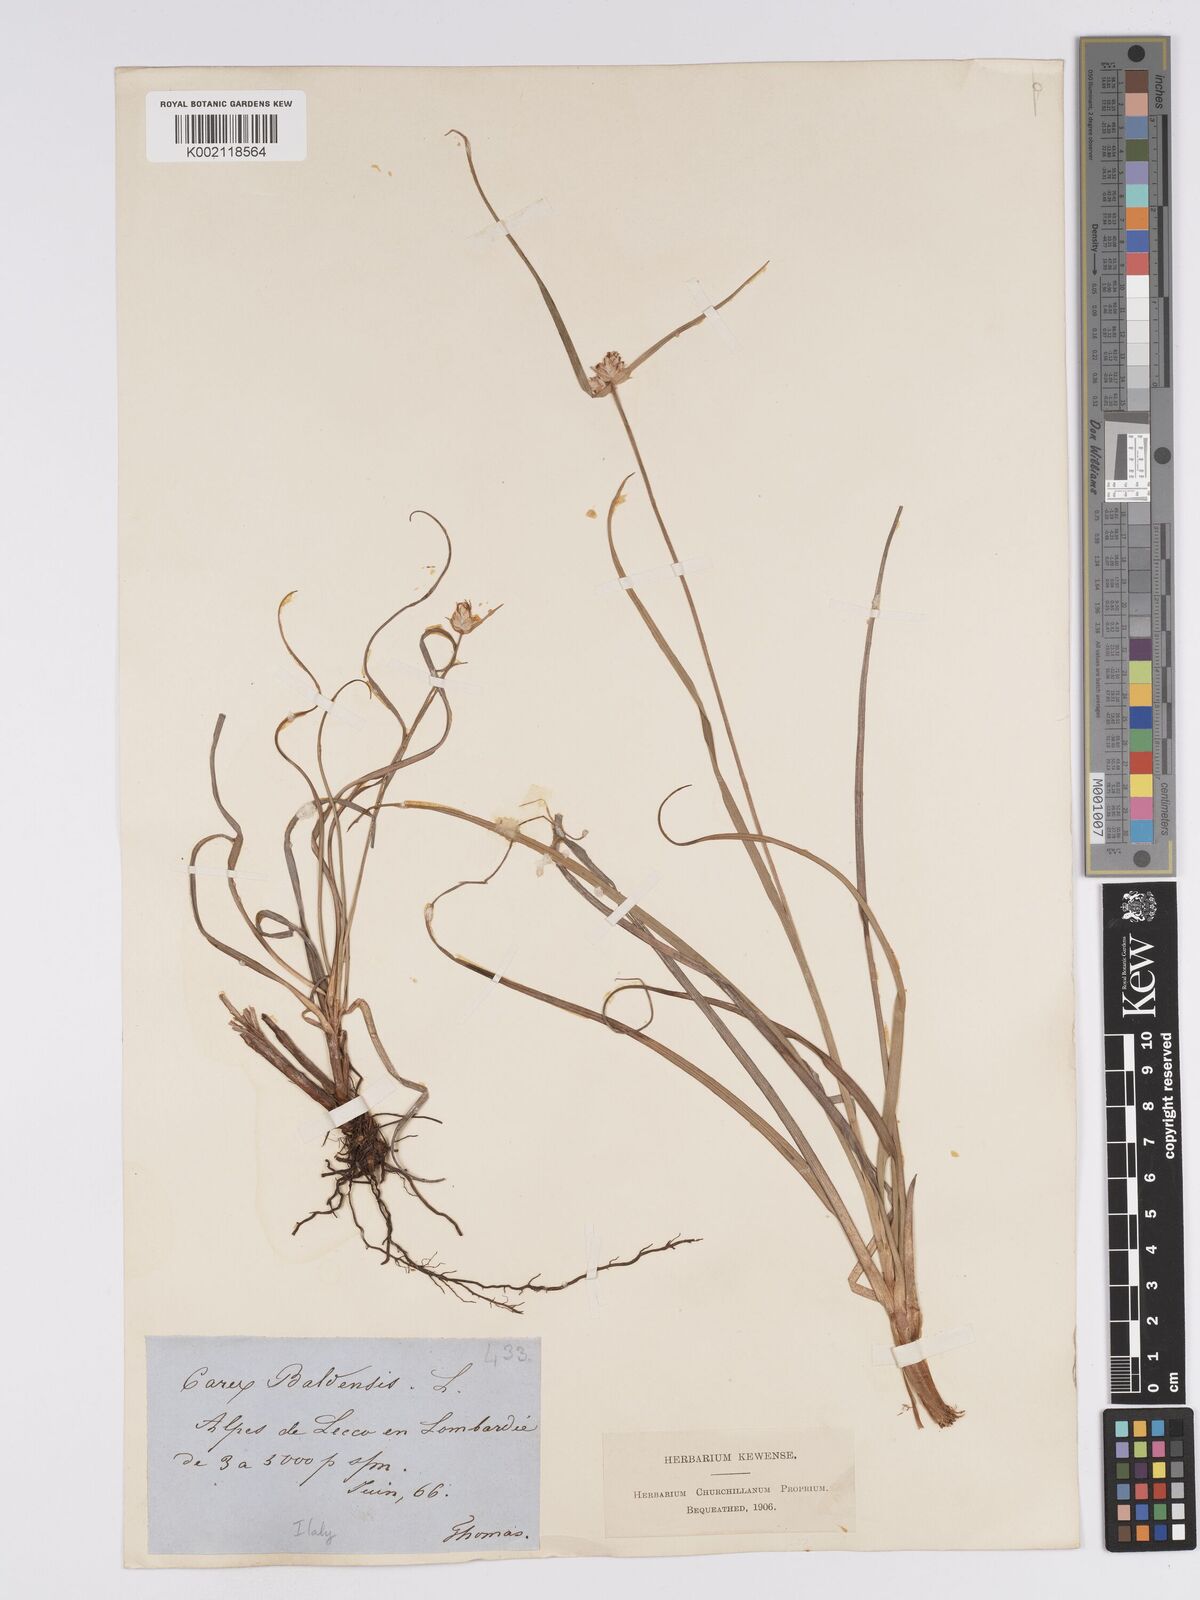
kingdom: Plantae
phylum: Tracheophyta
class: Liliopsida
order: Poales
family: Cyperaceae
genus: Carex
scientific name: Carex baldensis
